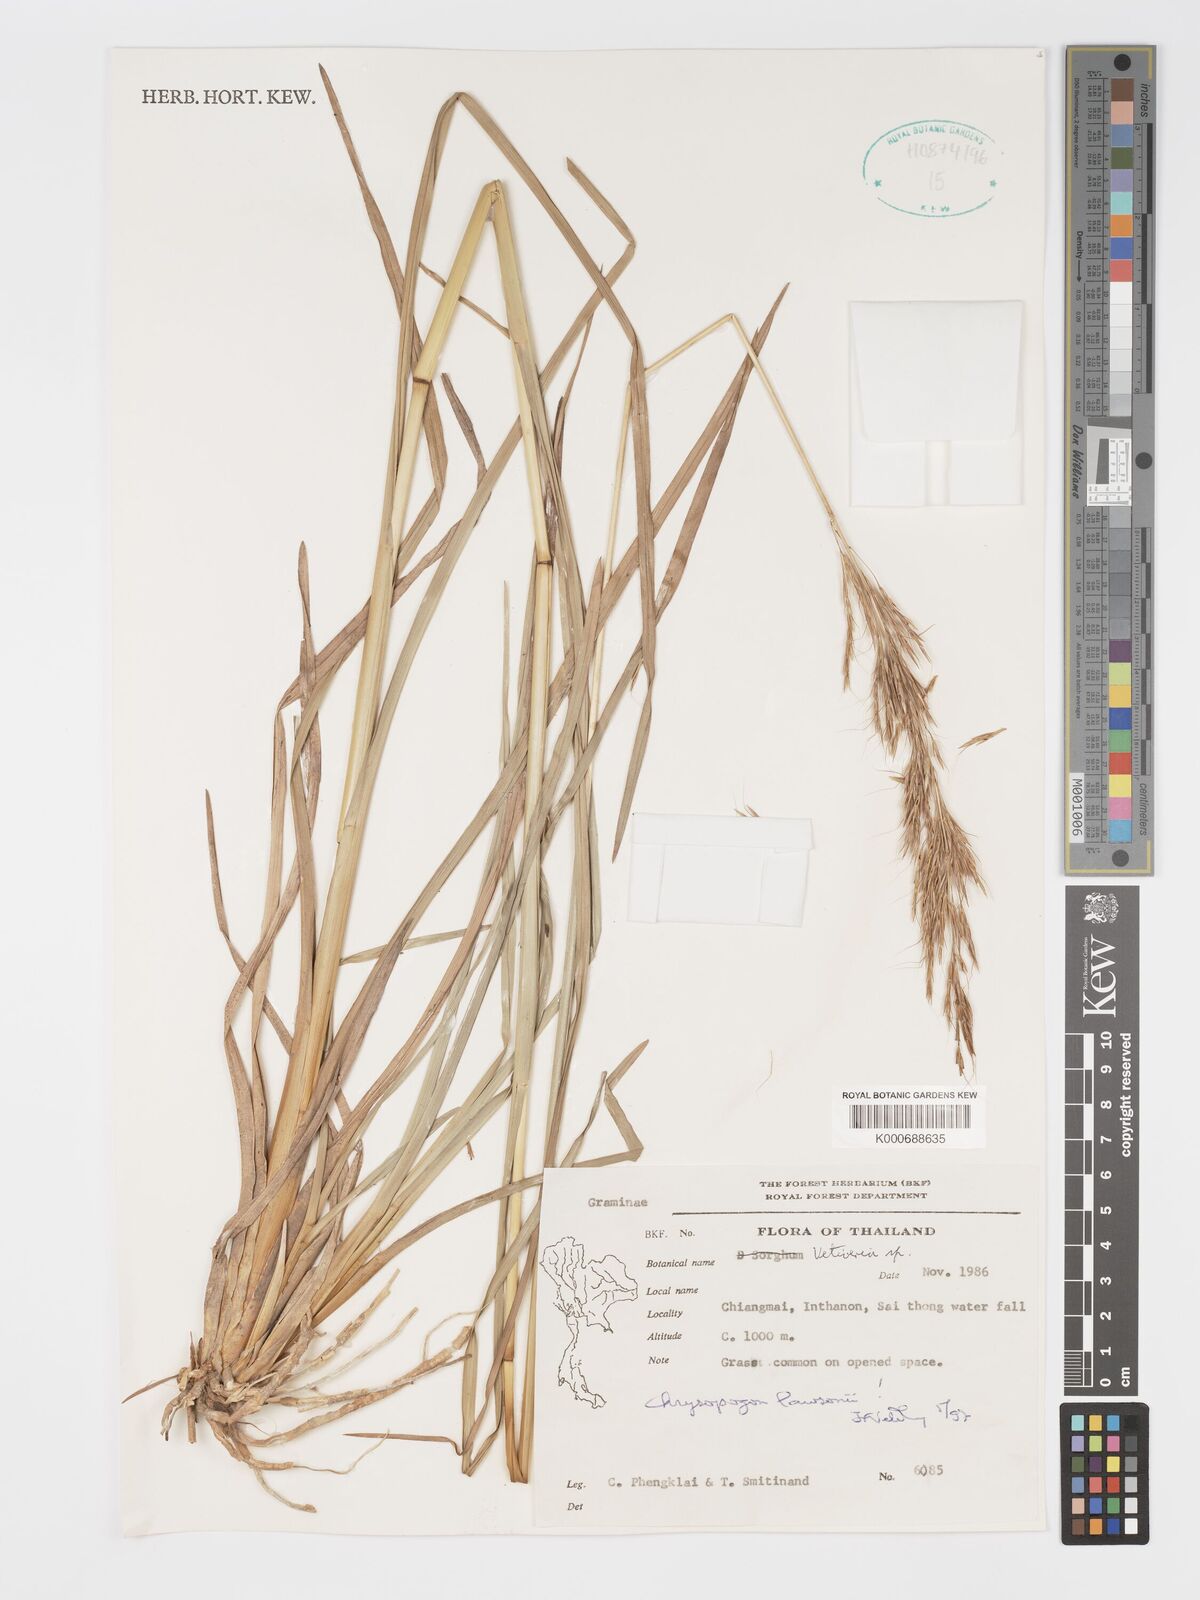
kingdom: Plantae
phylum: Tracheophyta
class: Liliopsida
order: Poales
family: Poaceae
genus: Chrysopogon
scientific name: Chrysopogon lawsonii
